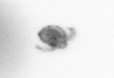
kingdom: Animalia
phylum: Arthropoda
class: Copepoda
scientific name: Copepoda
